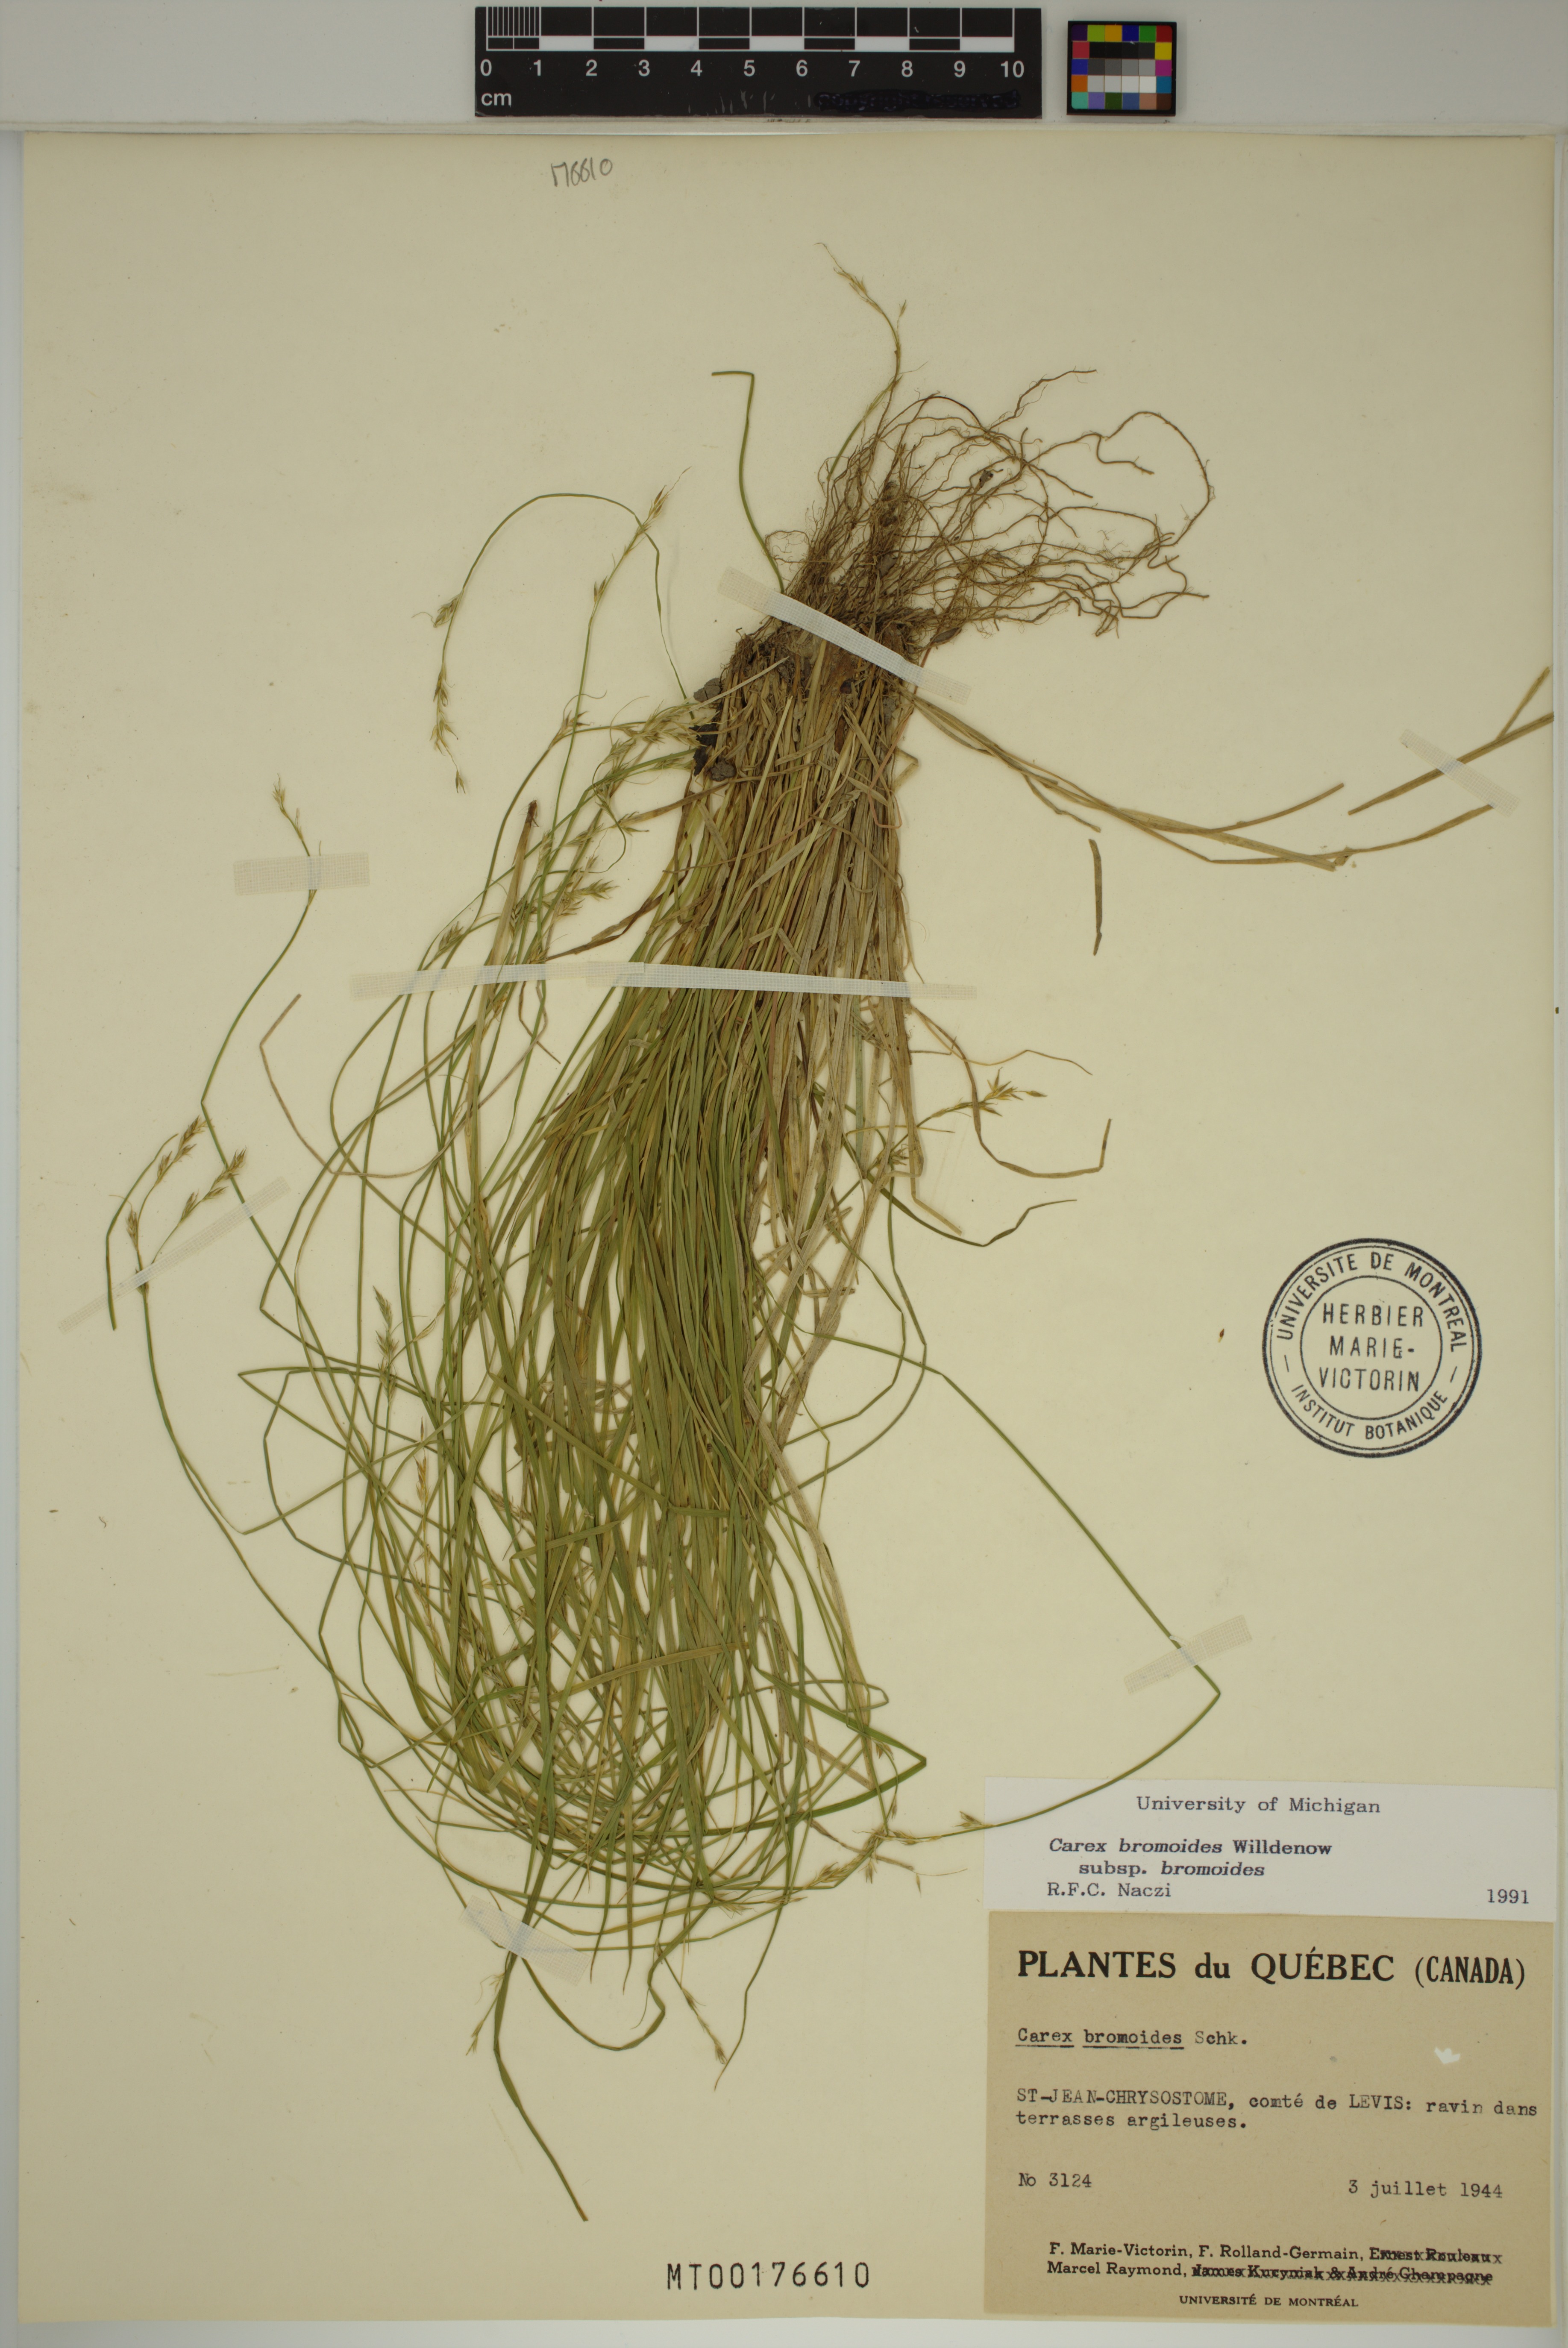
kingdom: Plantae
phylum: Tracheophyta
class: Liliopsida
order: Poales
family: Cyperaceae
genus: Carex
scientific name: Carex bromoides
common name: Brome hummock sedge
